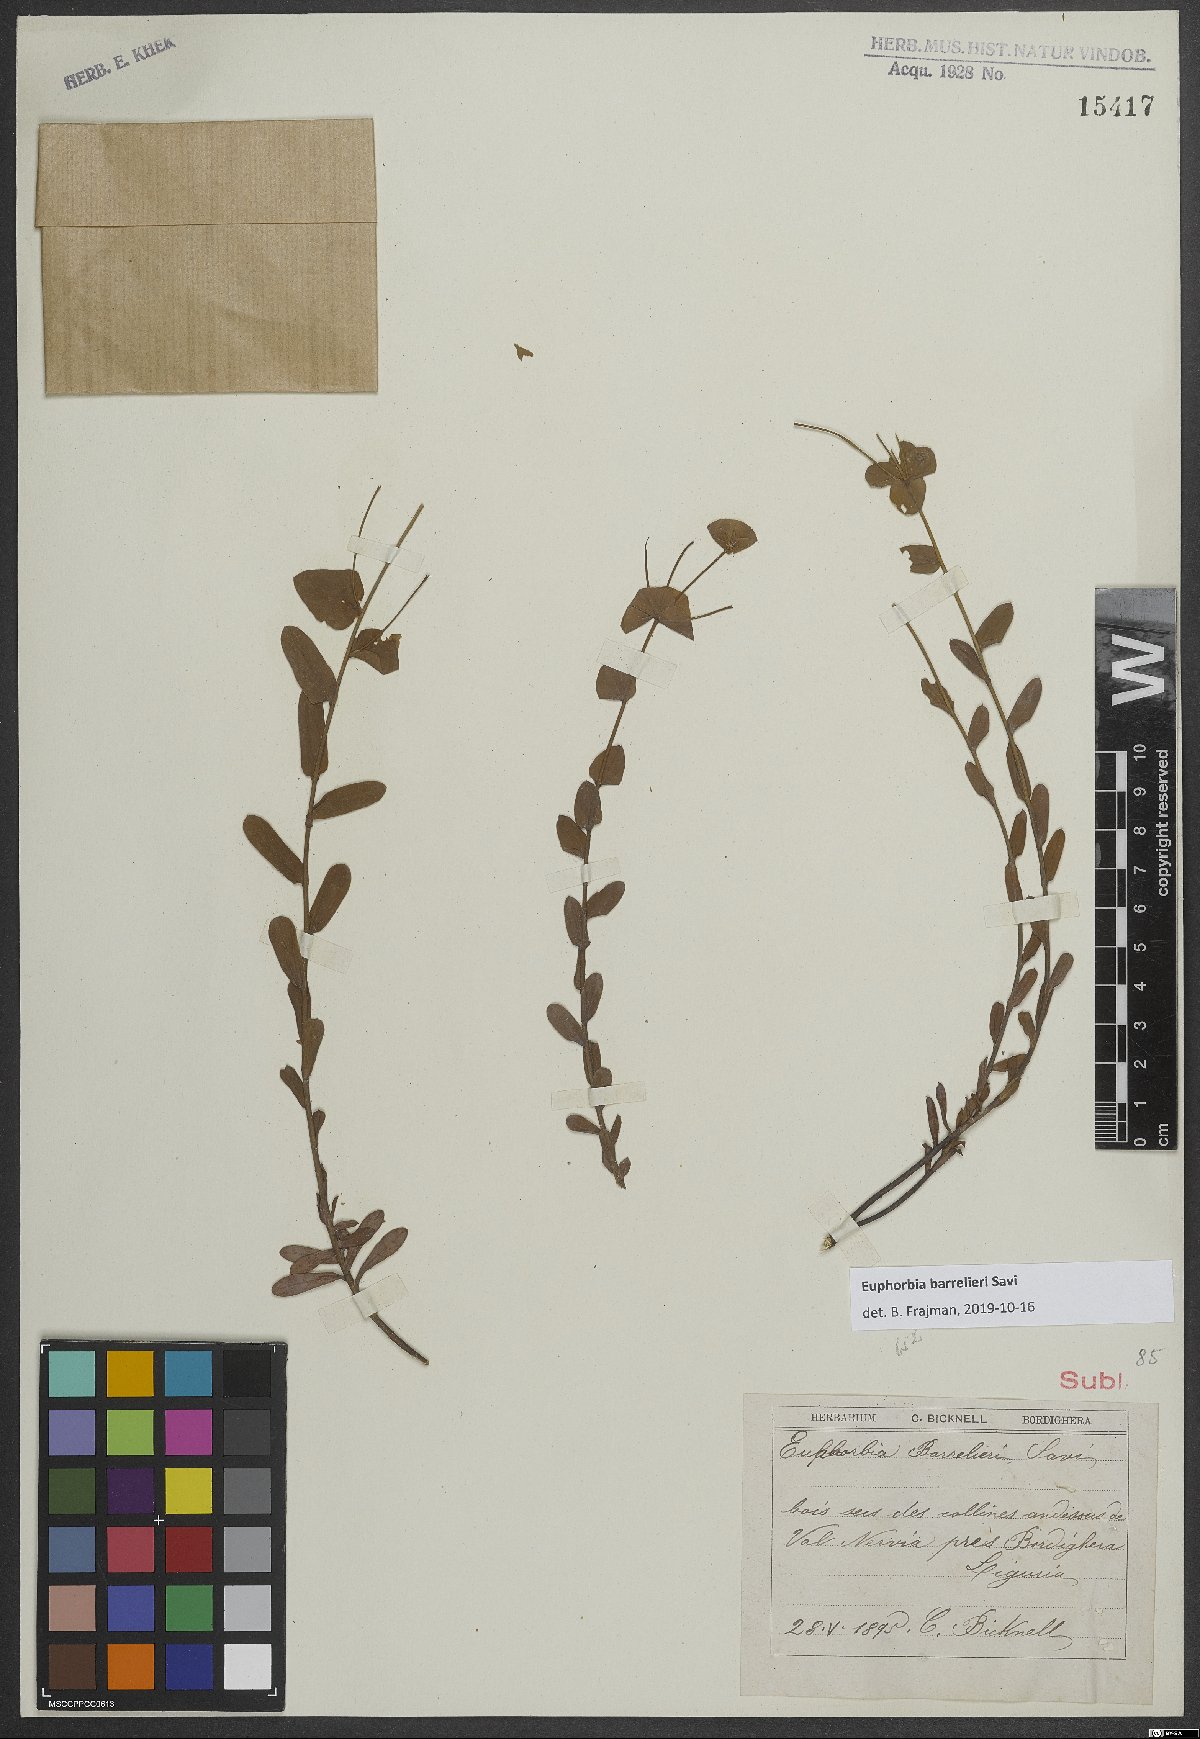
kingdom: Plantae
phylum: Tracheophyta
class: Magnoliopsida
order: Malpighiales
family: Euphorbiaceae
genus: Euphorbia
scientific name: Euphorbia
